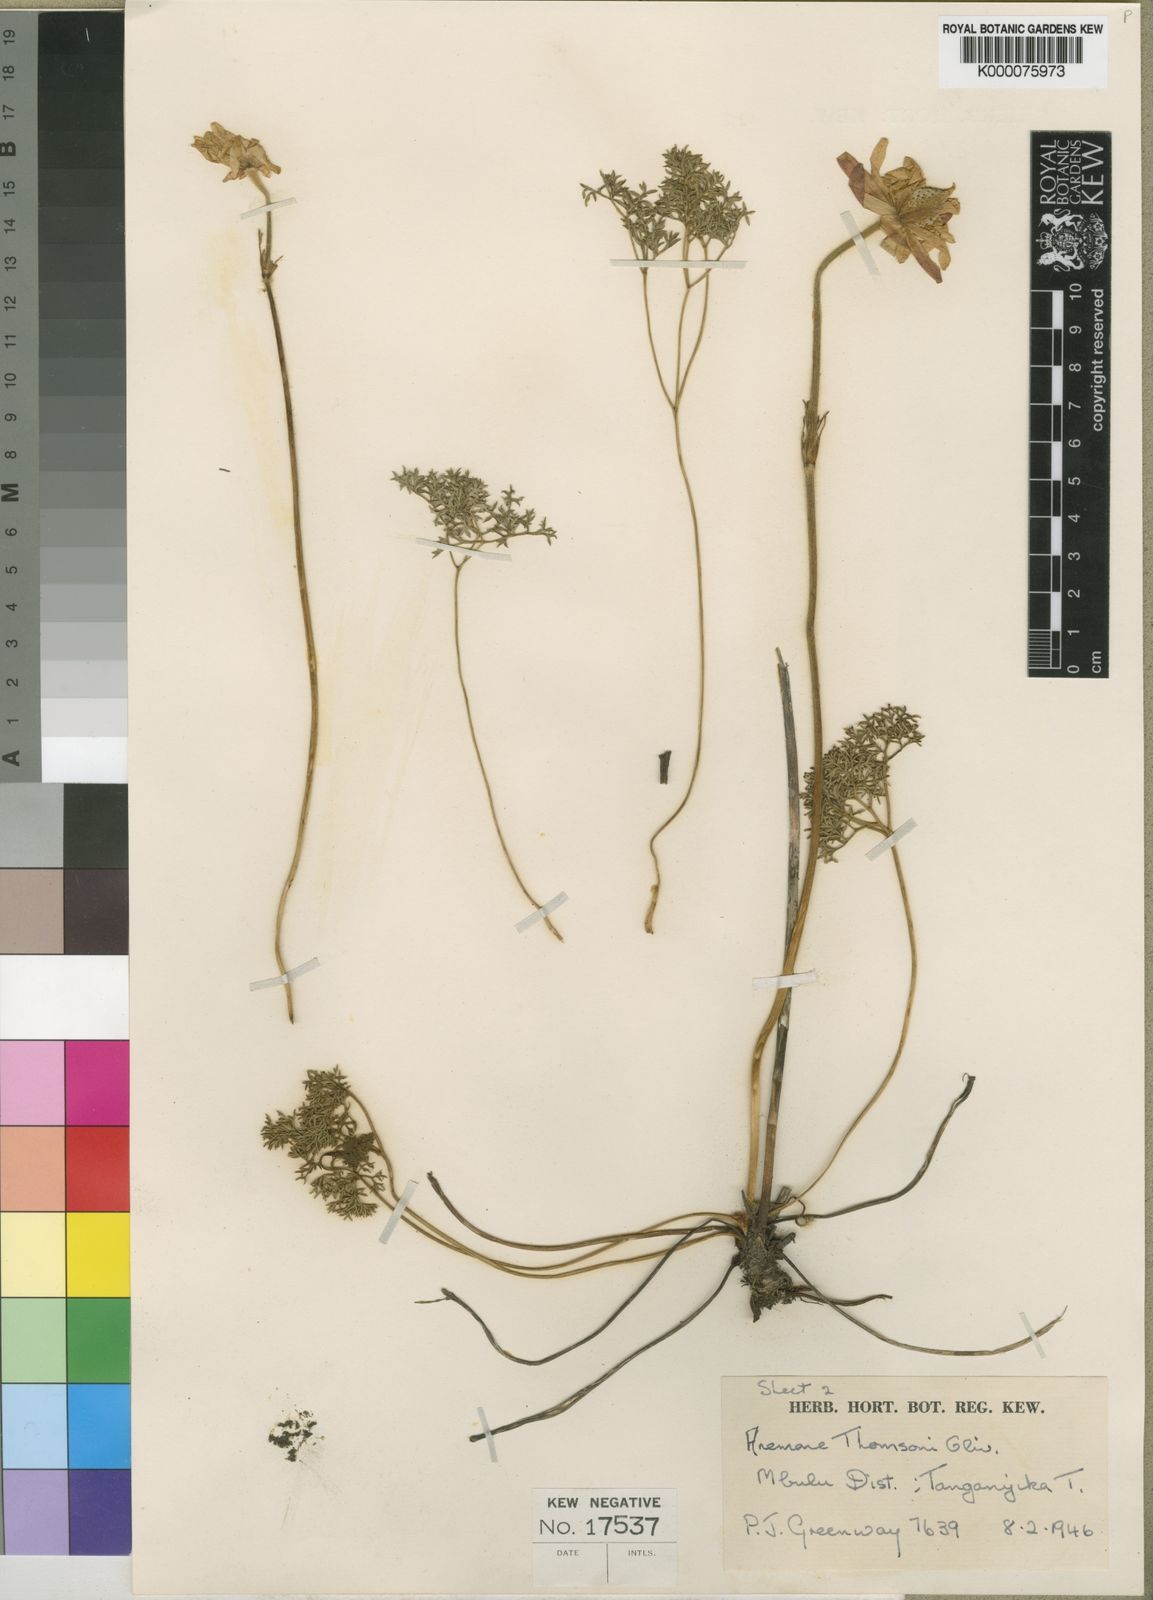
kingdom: Plantae
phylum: Tracheophyta
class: Magnoliopsida
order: Ranunculales
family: Ranunculaceae
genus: Anemone
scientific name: Anemone thomsonii
